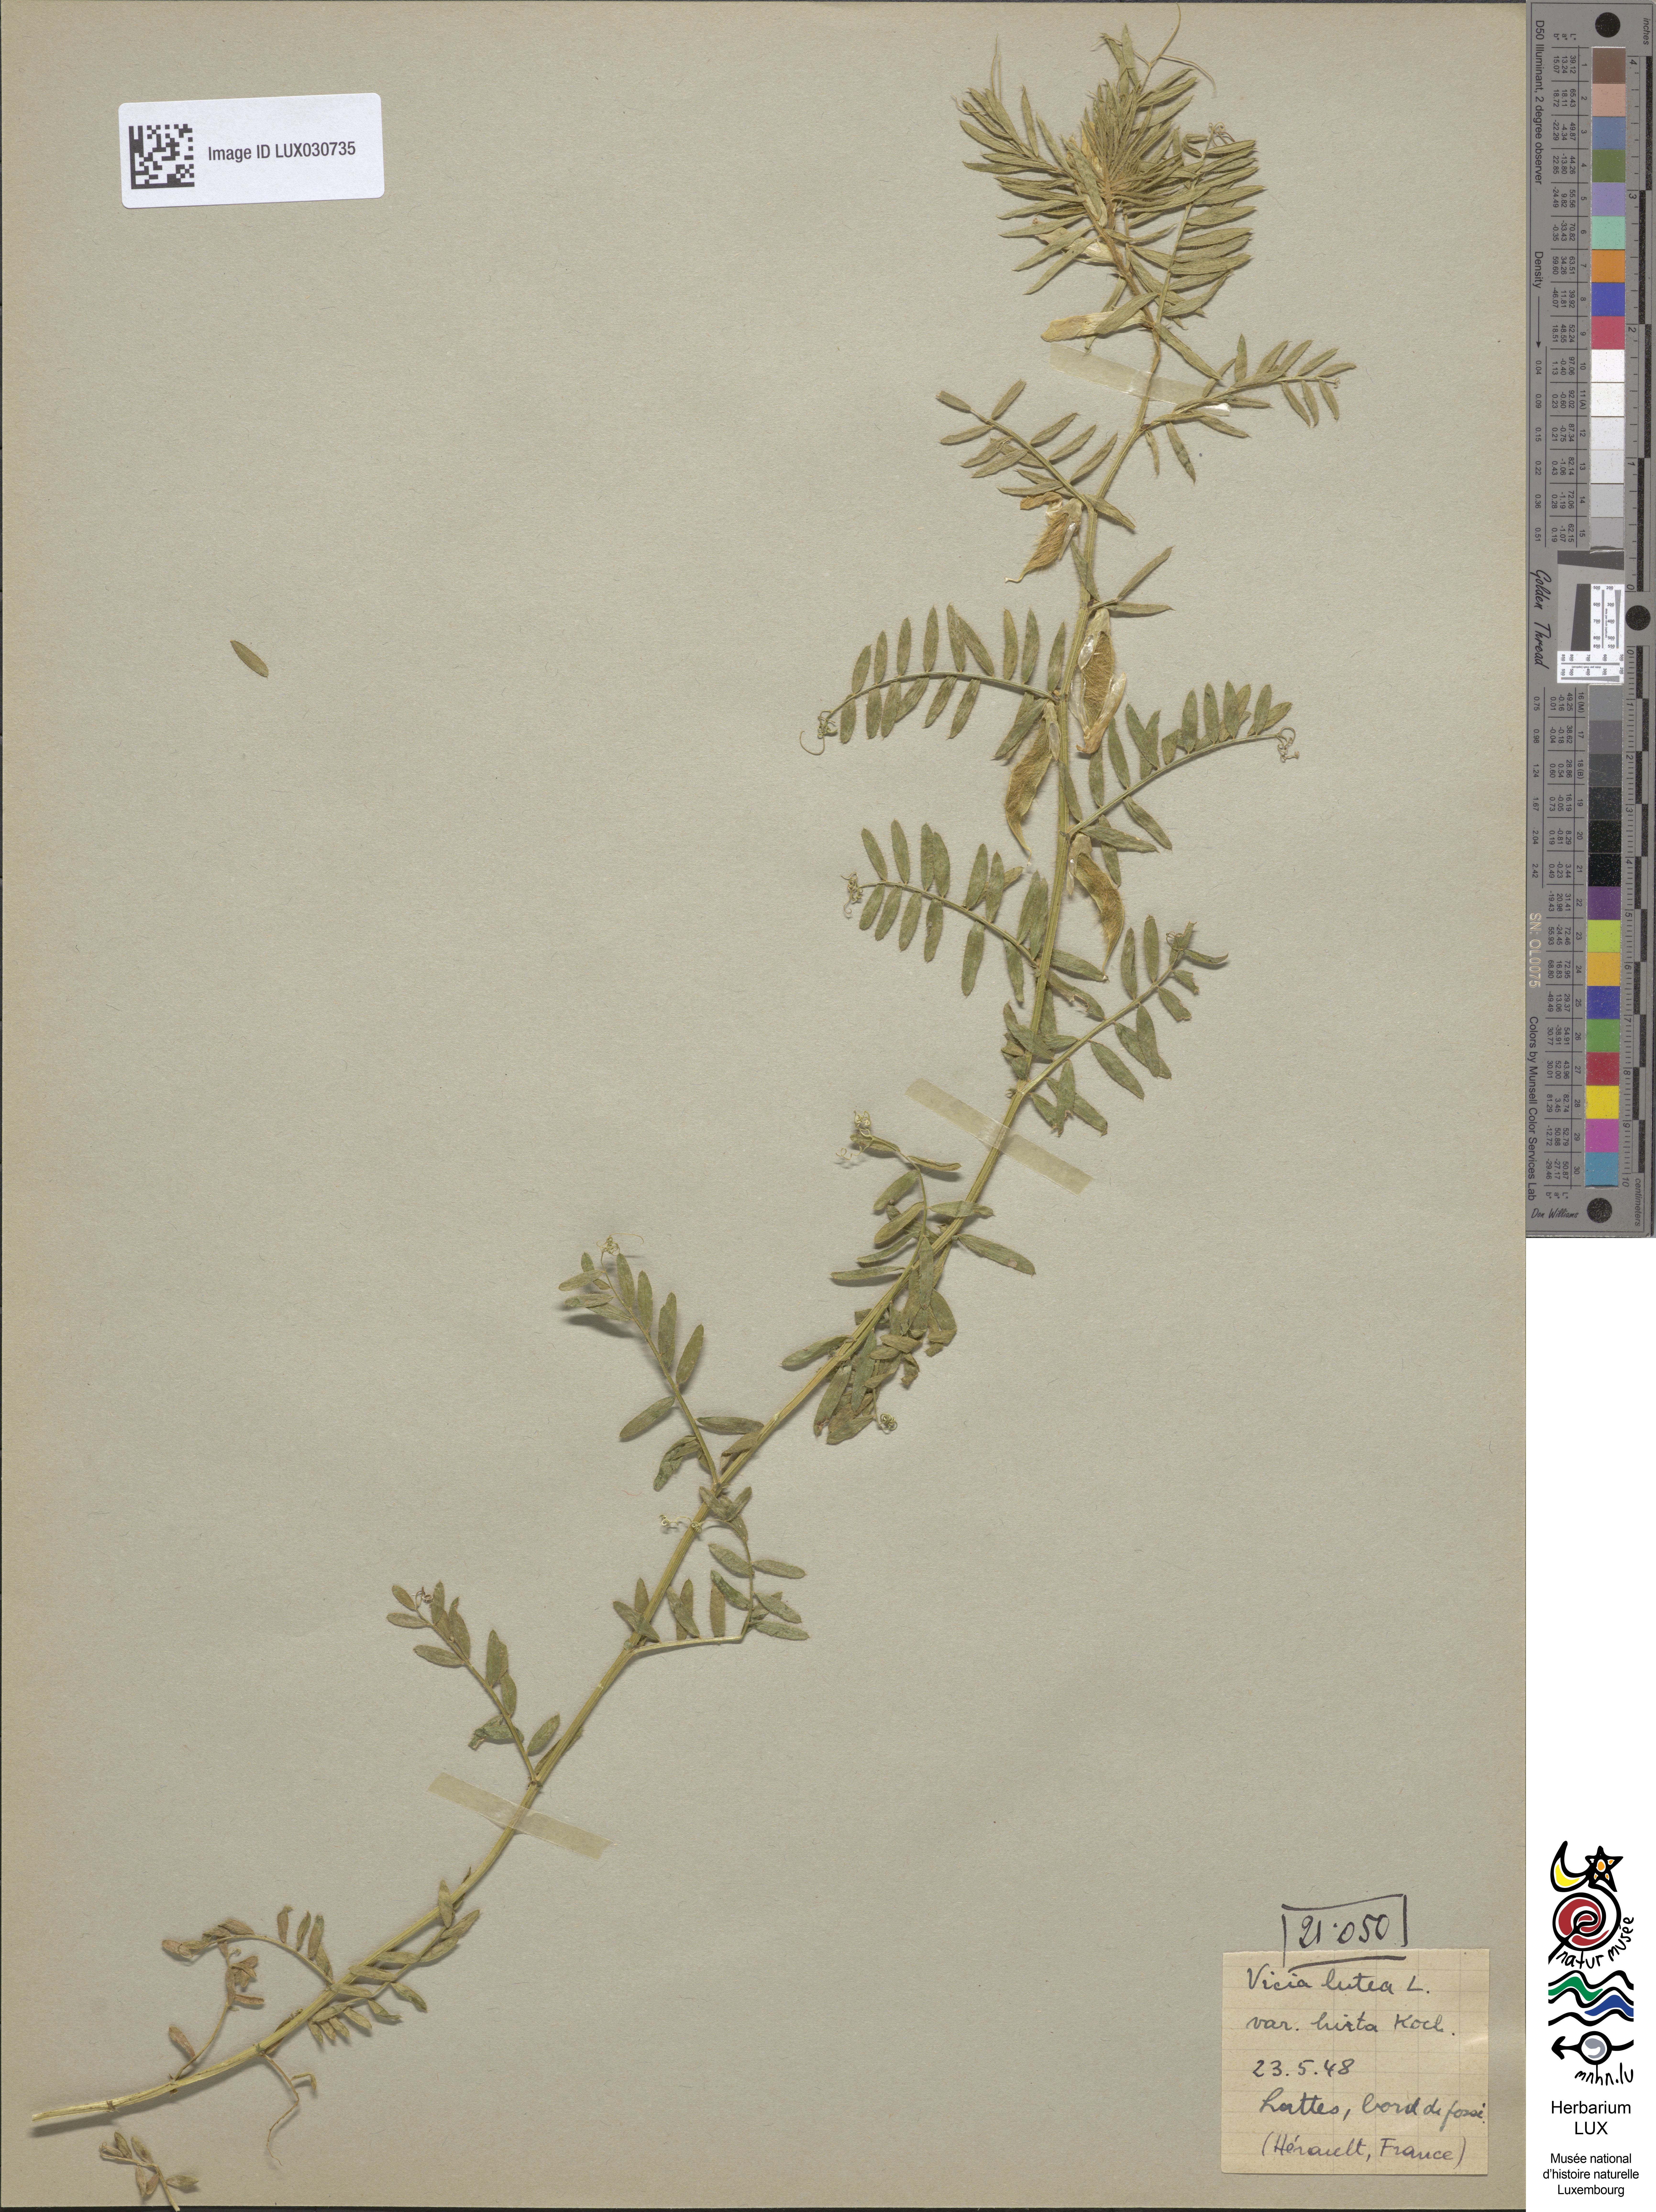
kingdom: Plantae
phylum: Tracheophyta
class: Magnoliopsida
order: Fabales
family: Fabaceae
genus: Vicia
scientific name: Vicia lutea
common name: Smooth yellow vetch
